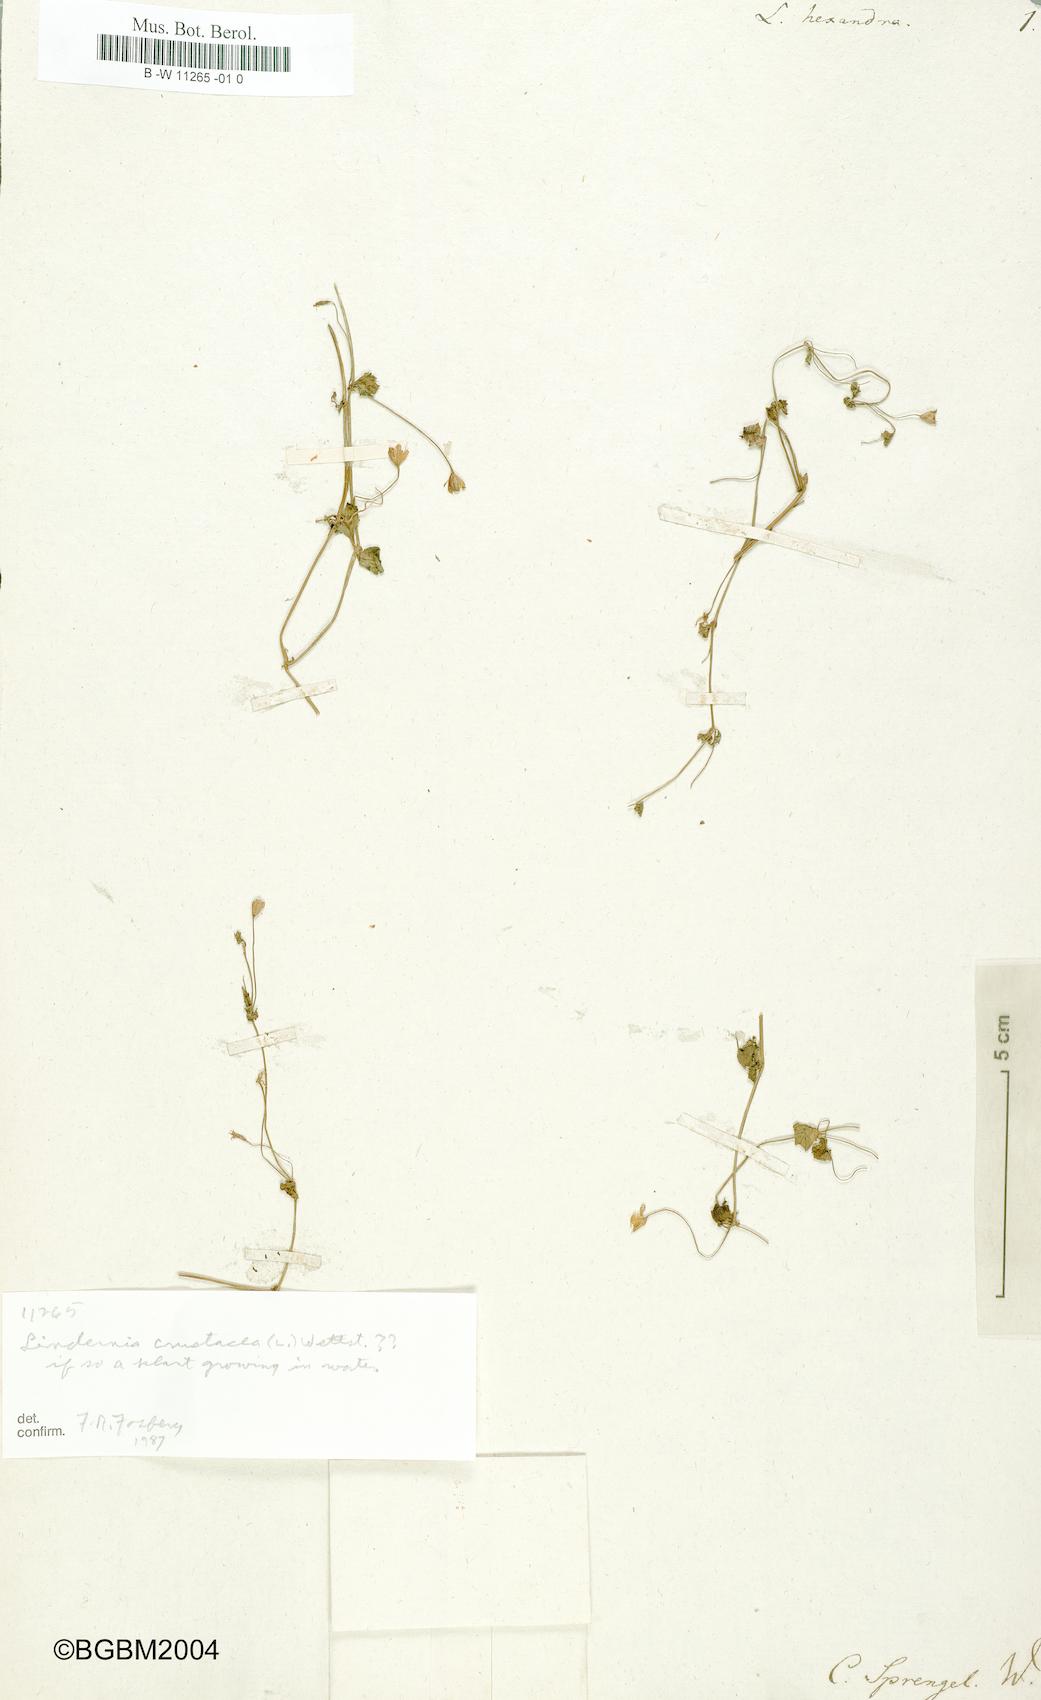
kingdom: Plantae
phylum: Tracheophyta
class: Magnoliopsida
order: Lamiales
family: Linderniaceae
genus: Torenia
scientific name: Torenia crustacea
